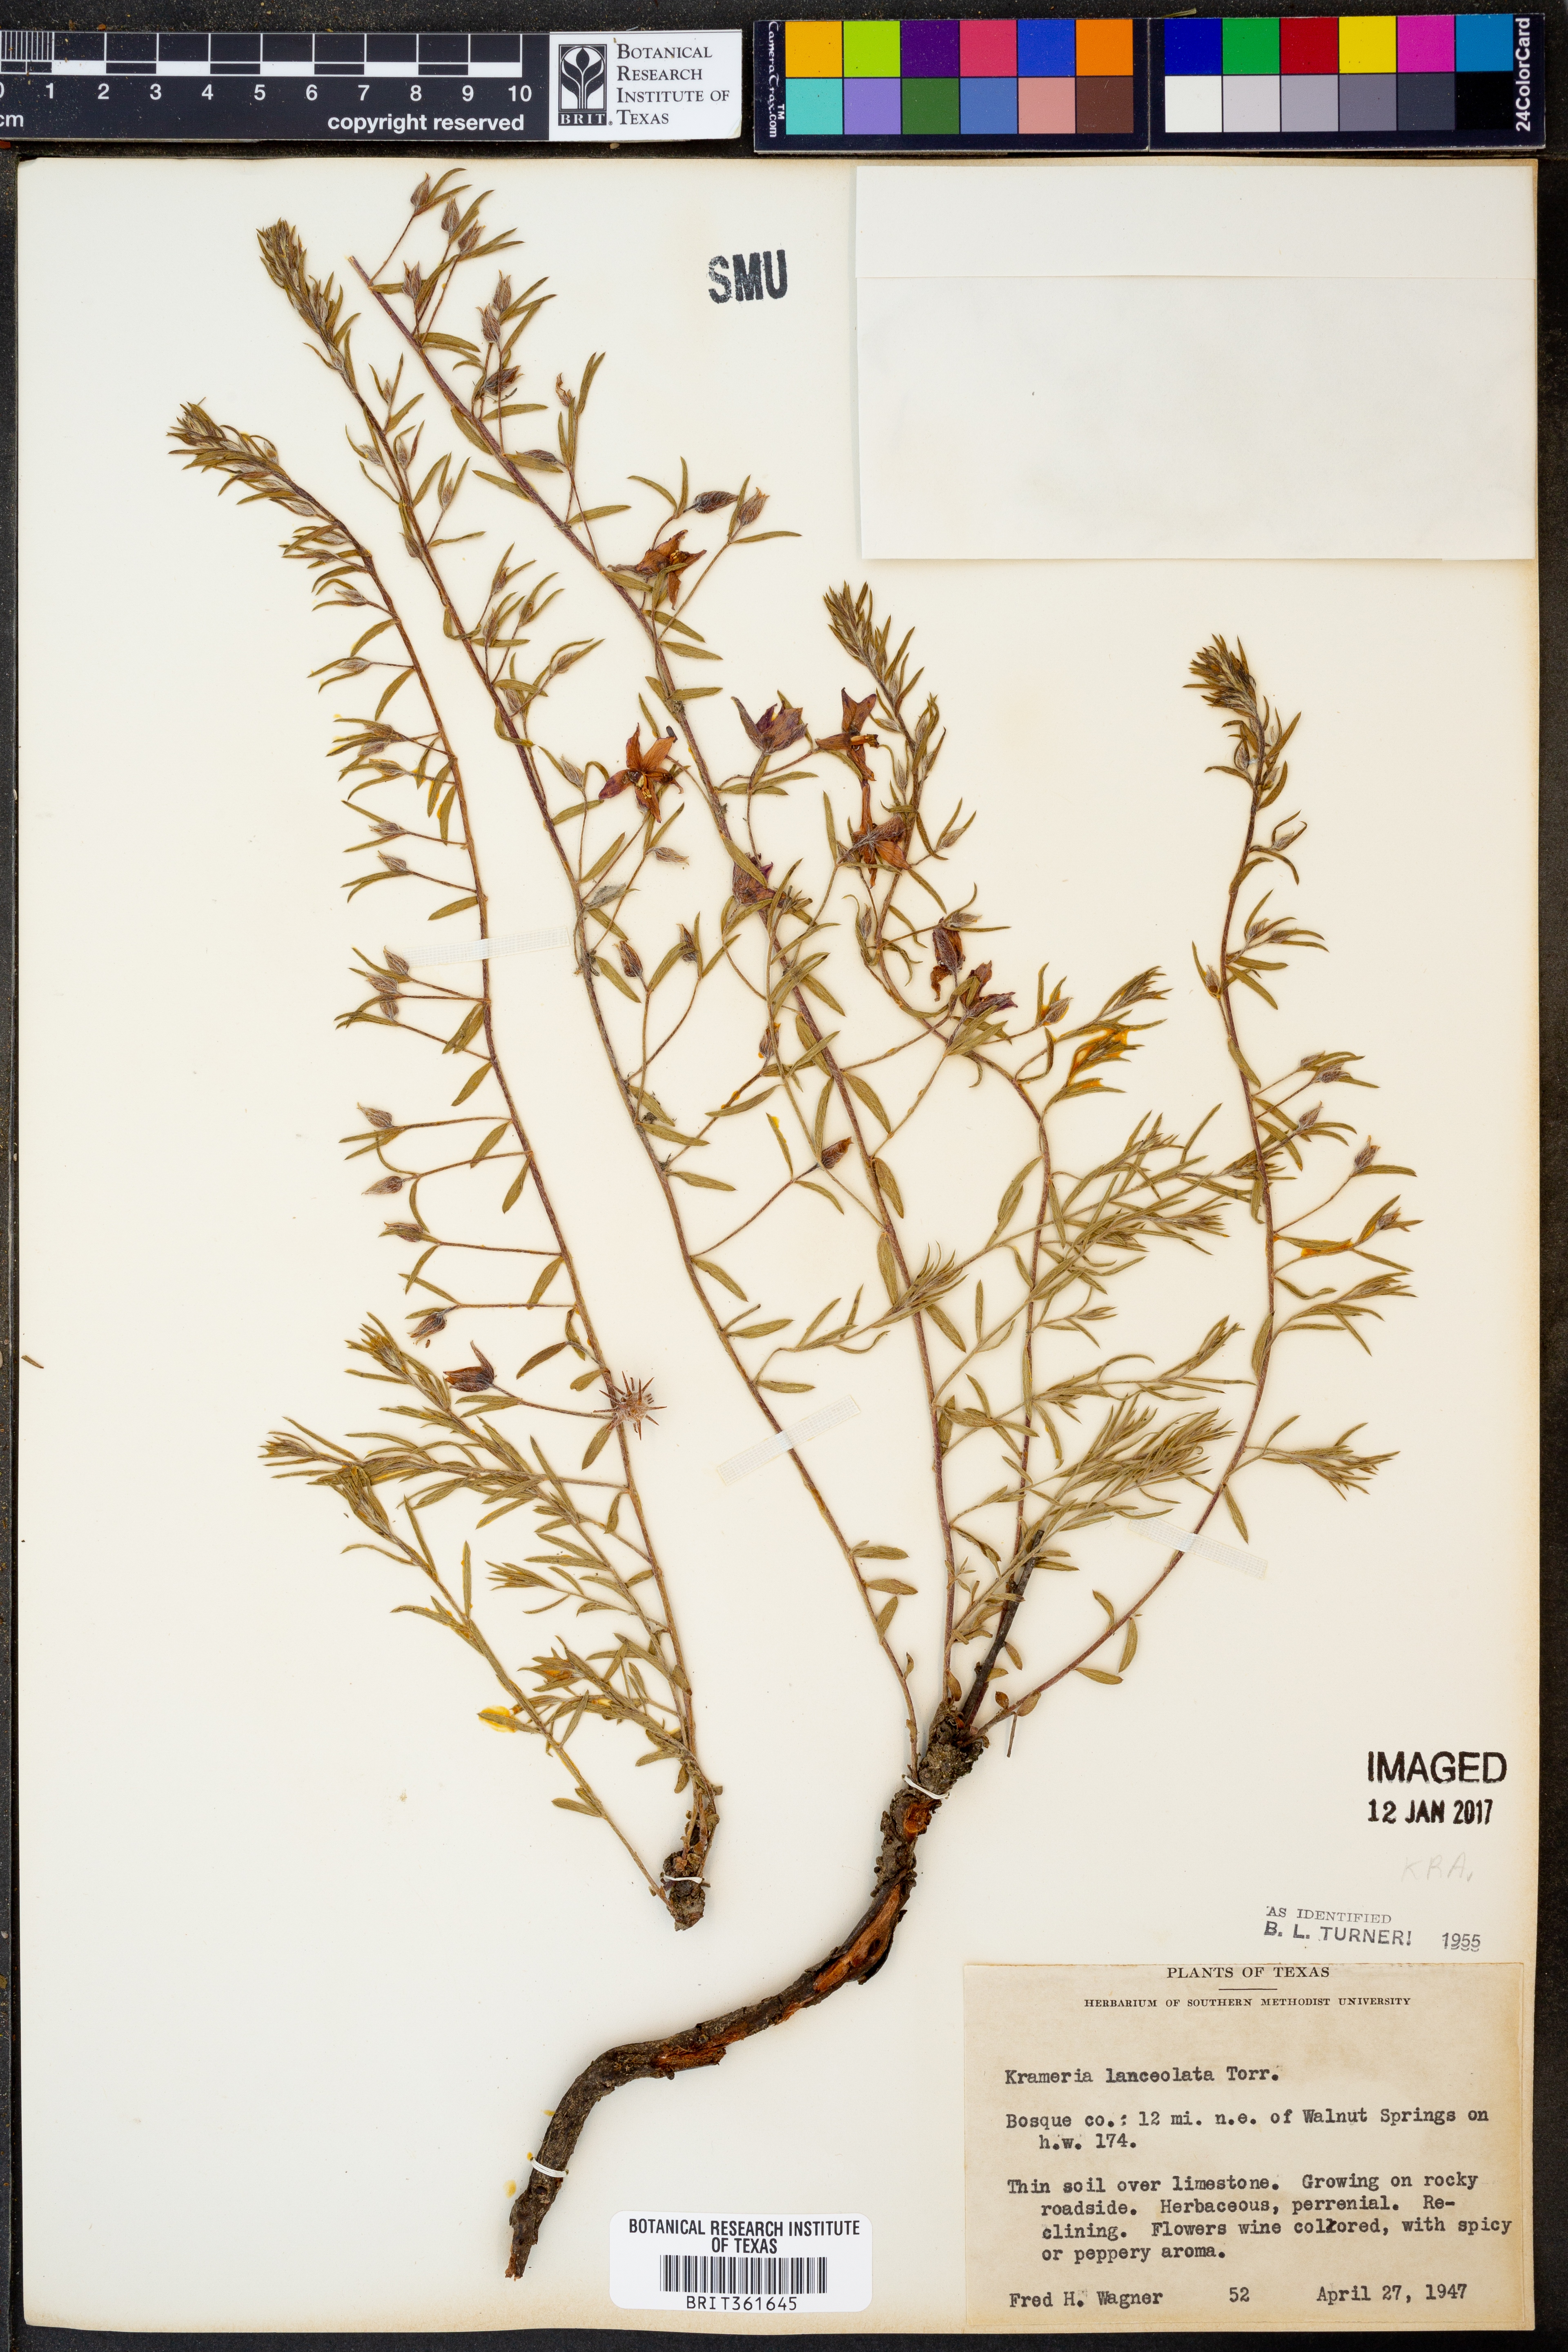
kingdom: Plantae
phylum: Tracheophyta
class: Magnoliopsida
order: Zygophyllales
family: Krameriaceae
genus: Krameria
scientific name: Krameria lanceolata
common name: Ratany
